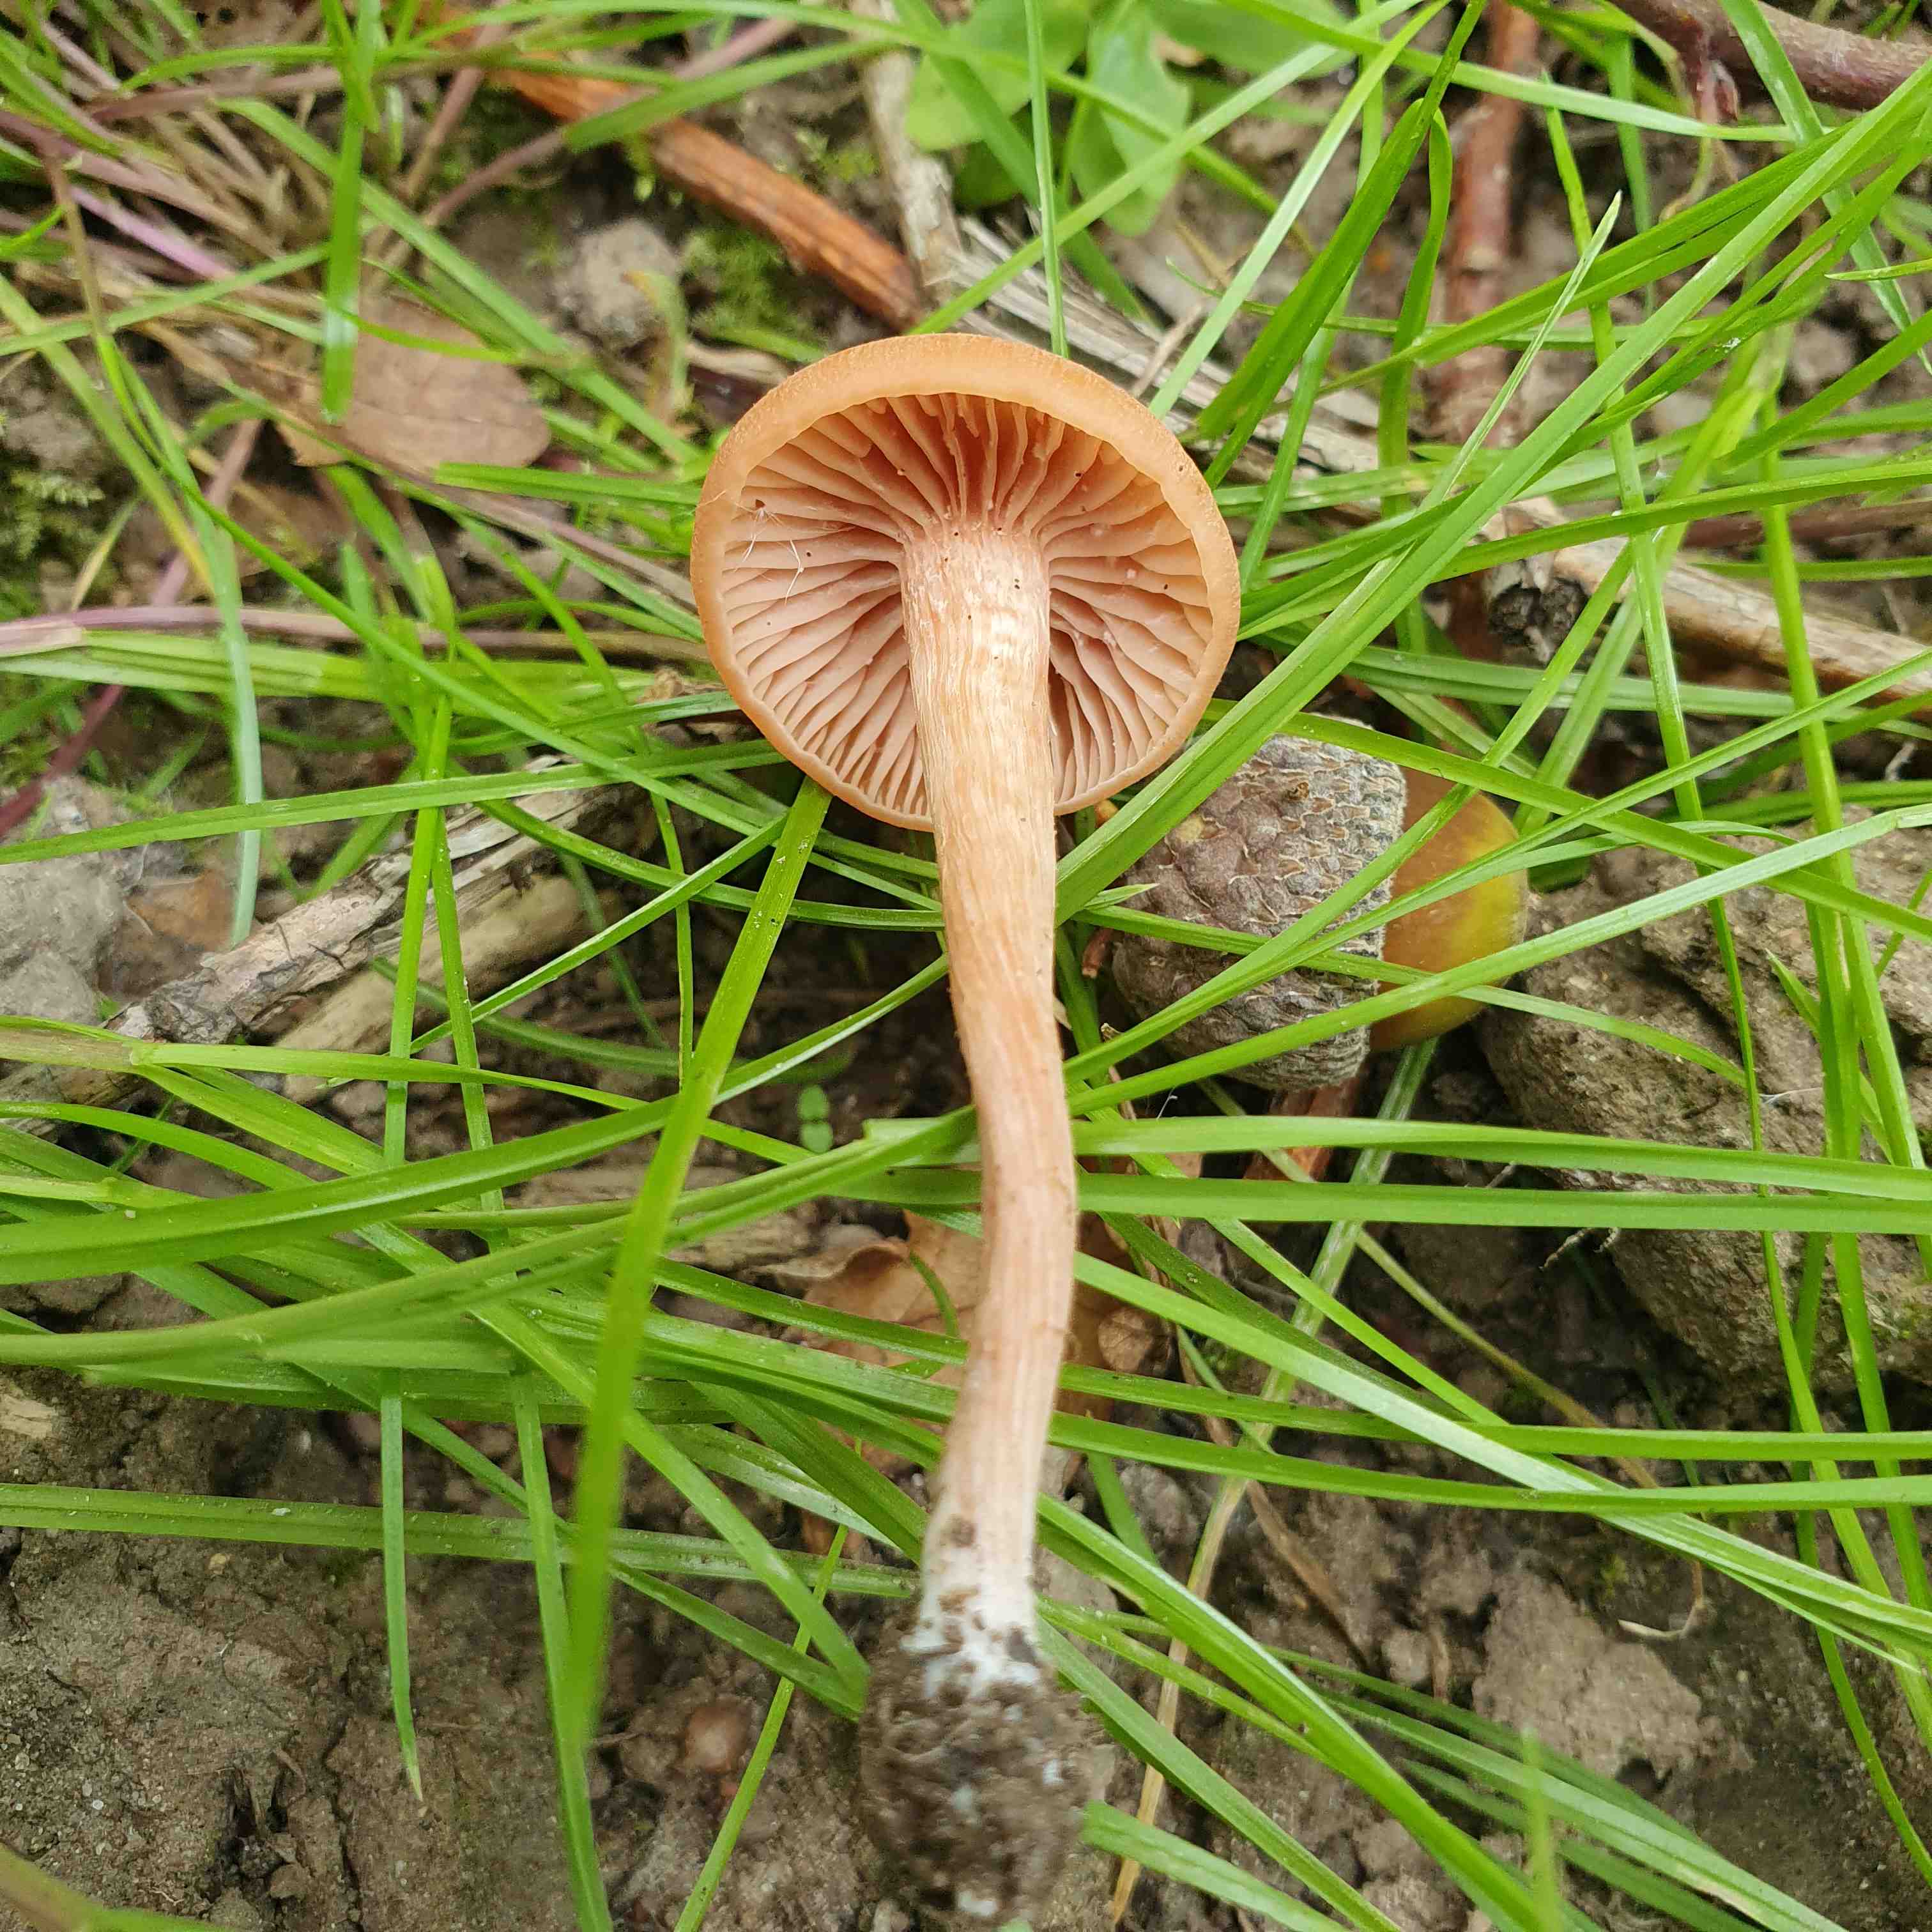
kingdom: Fungi
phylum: Basidiomycota
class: Agaricomycetes
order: Agaricales
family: Hydnangiaceae
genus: Laccaria
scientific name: Laccaria laccata
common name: rød ametysthat
